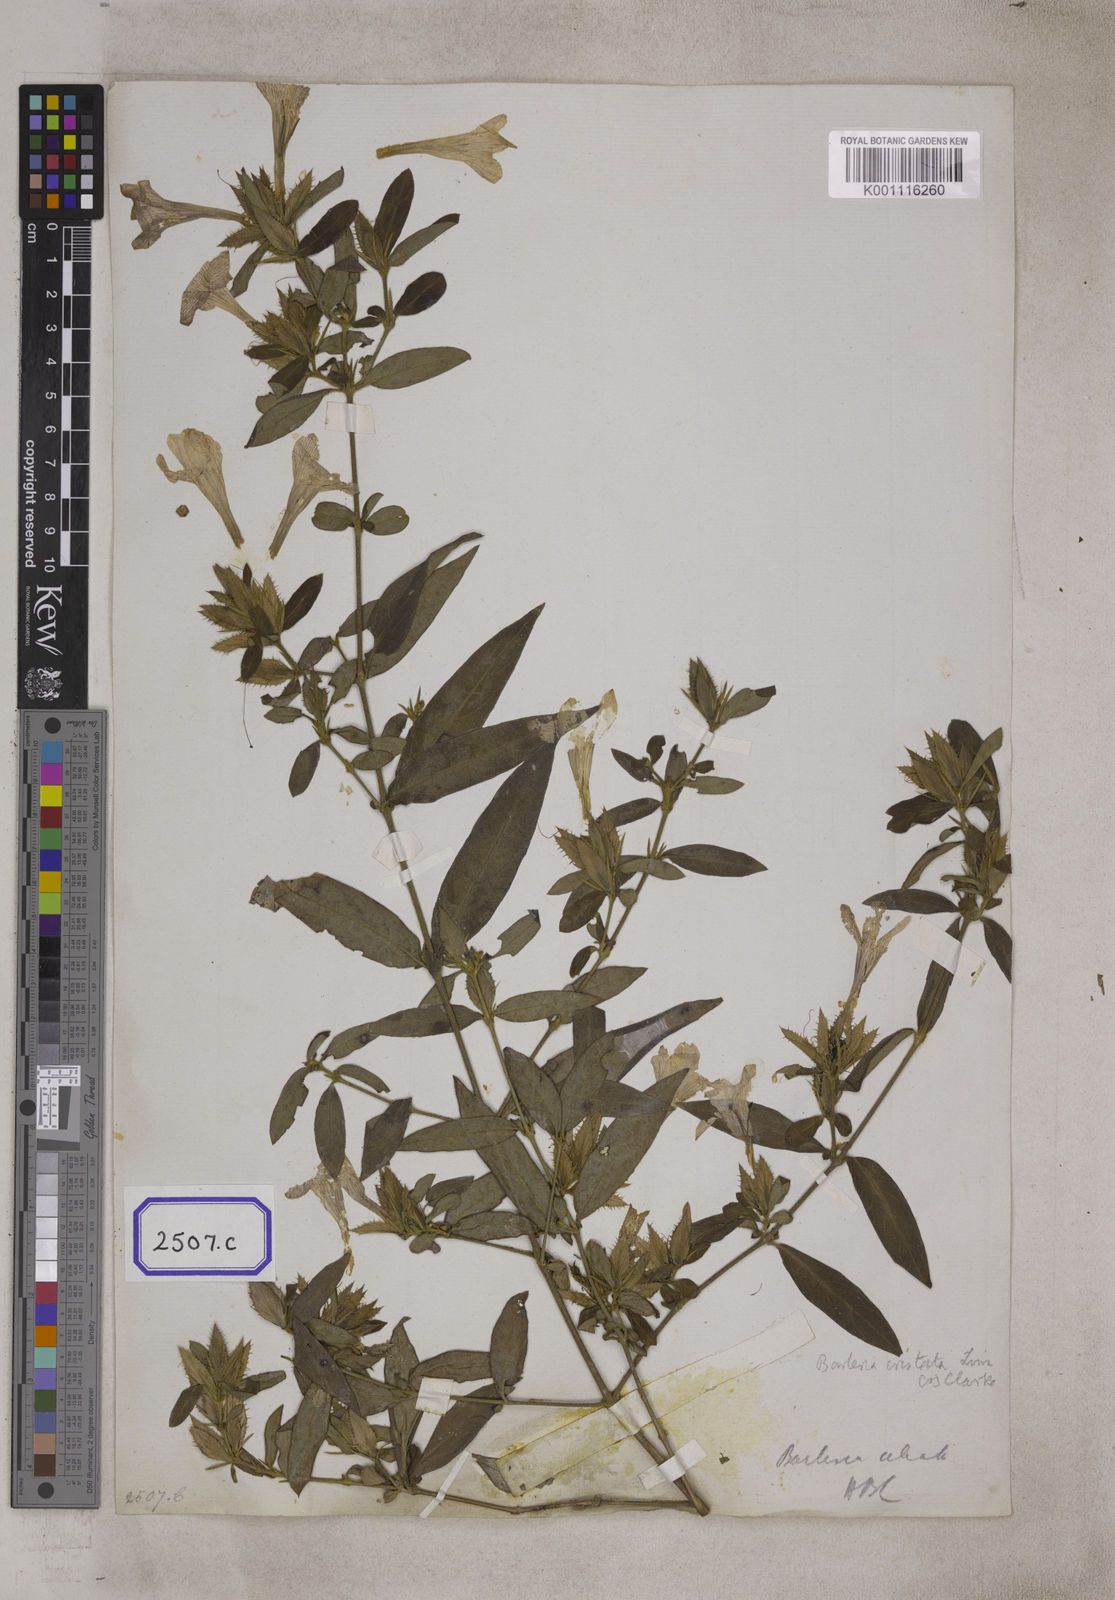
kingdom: Plantae
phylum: Tracheophyta
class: Magnoliopsida
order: Lamiales
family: Acanthaceae
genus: Barleria
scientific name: Barleria cristata
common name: Crested philippine violet
